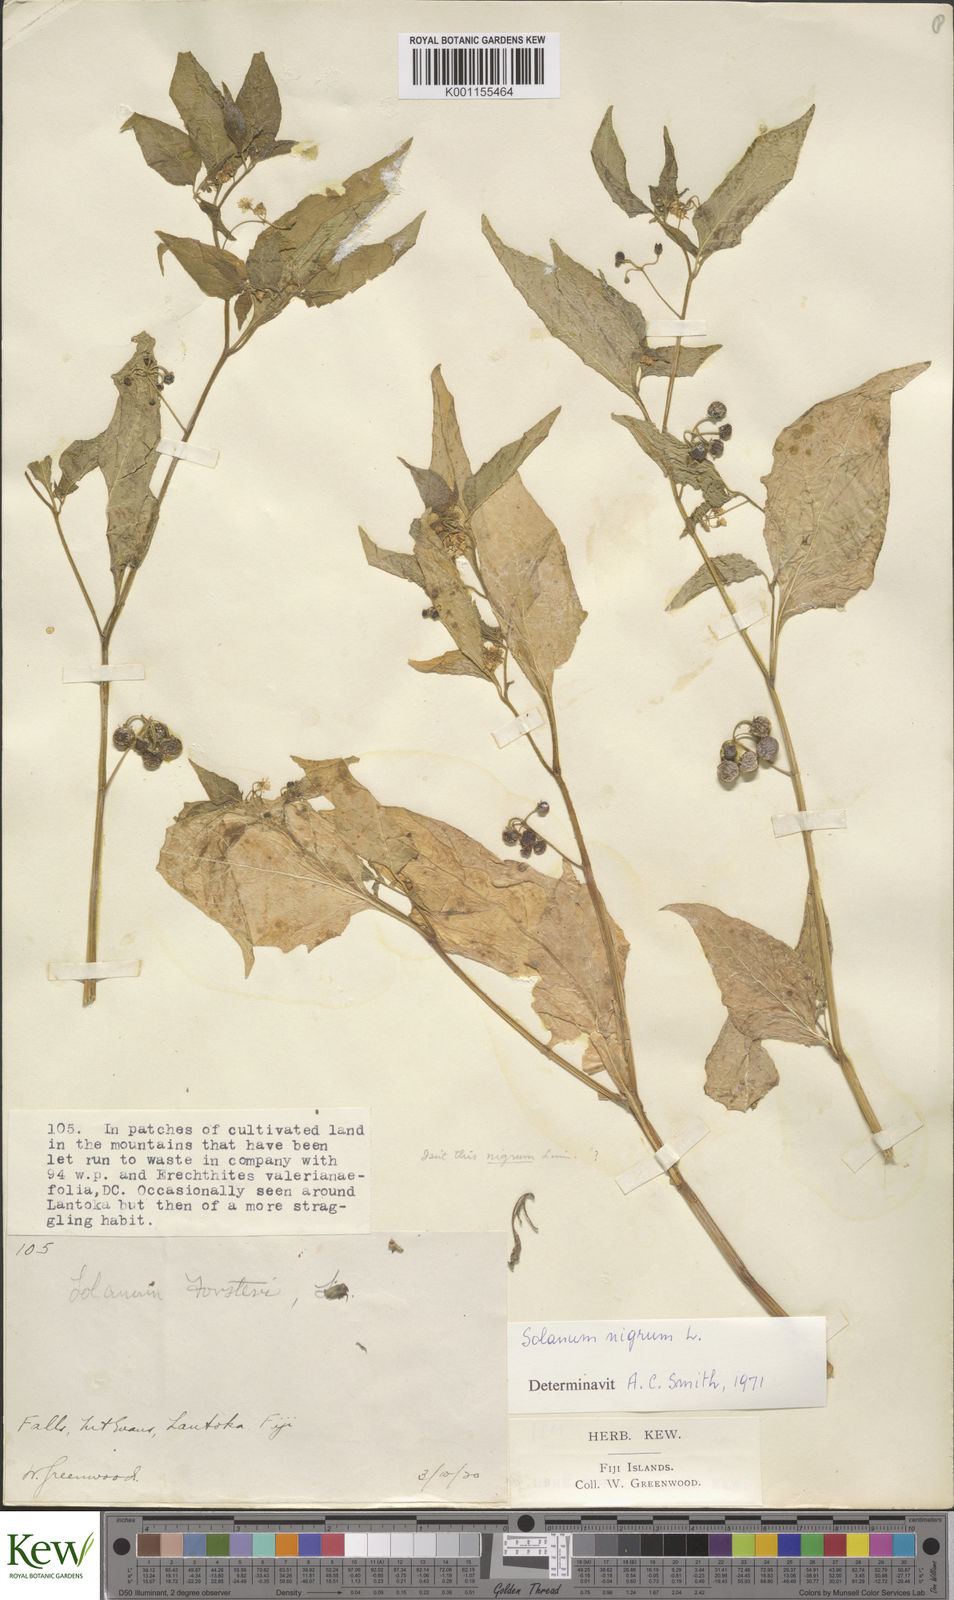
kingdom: Plantae
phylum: Tracheophyta
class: Magnoliopsida
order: Solanales
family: Solanaceae
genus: Solanum
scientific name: Solanum
